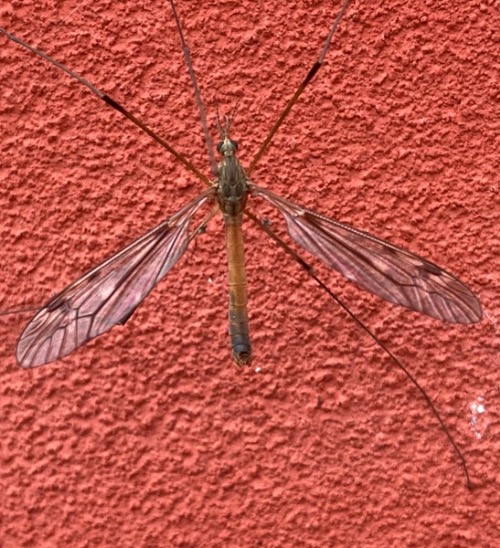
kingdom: Animalia
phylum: Arthropoda
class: Insecta
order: Diptera
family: Tipulidae
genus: Tipula
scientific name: Tipula scripta
